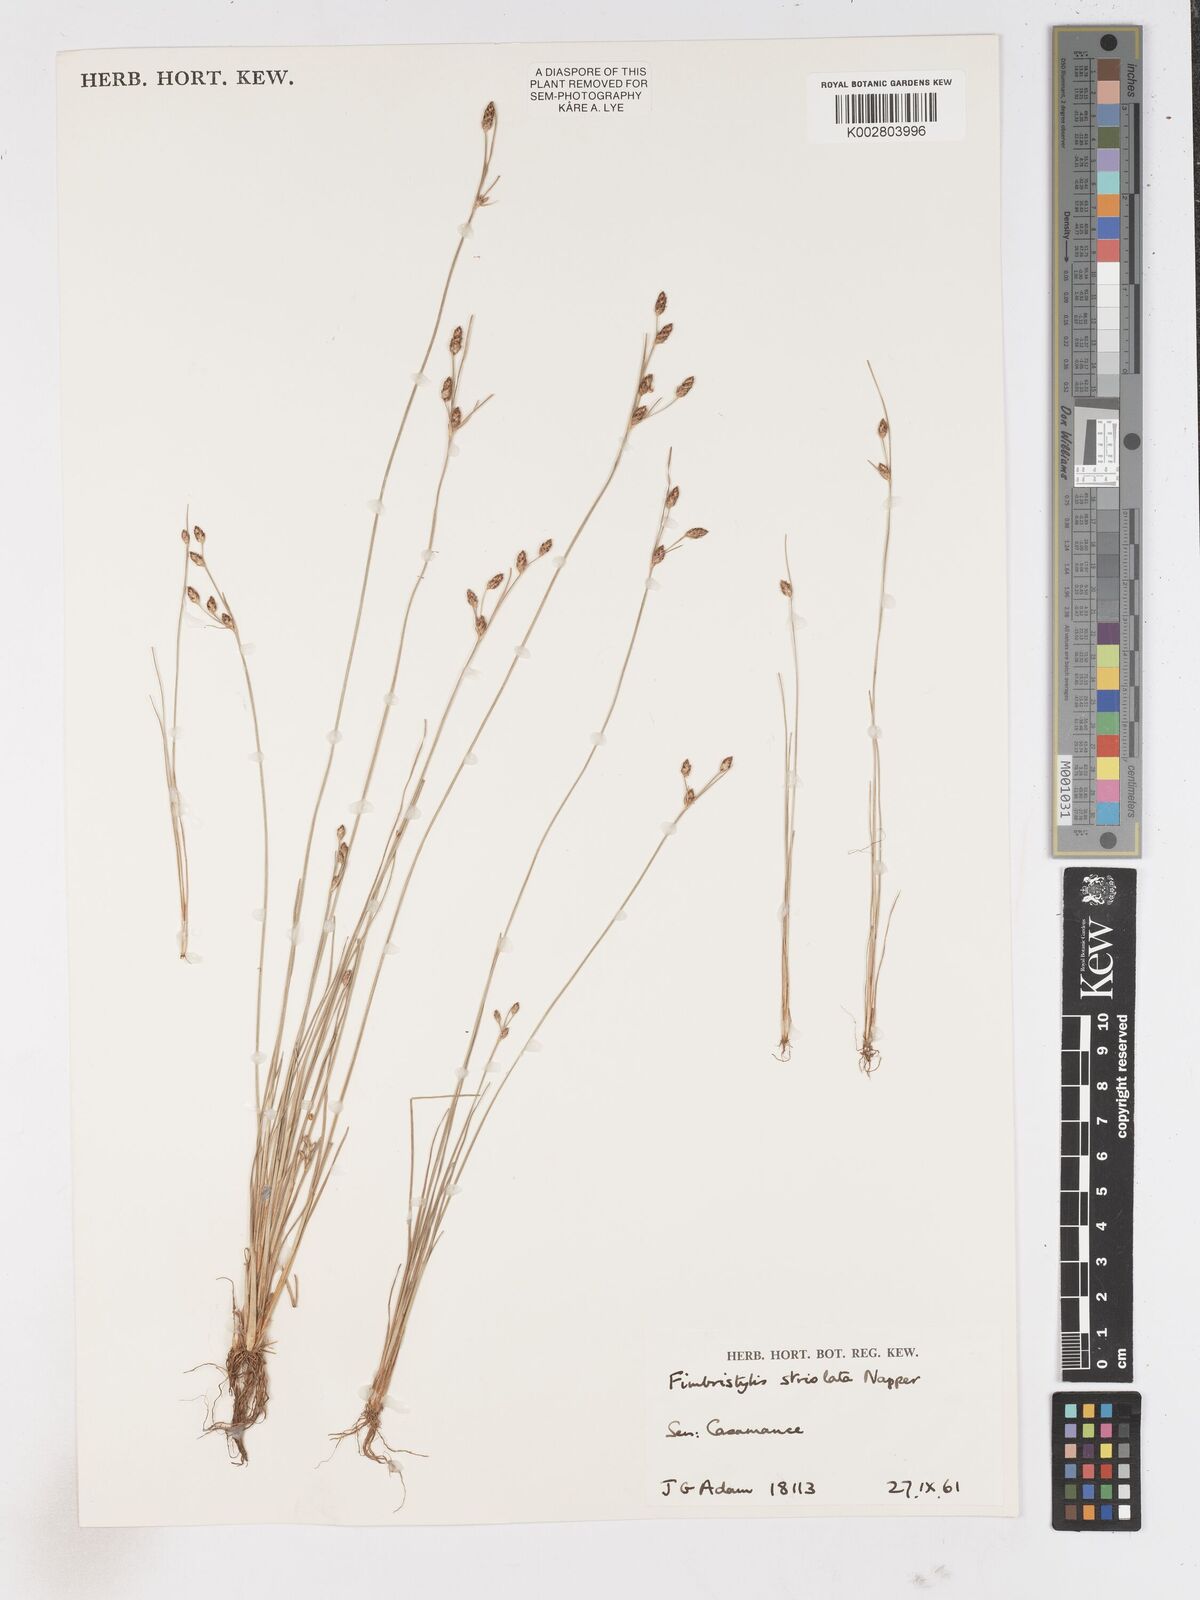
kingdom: Plantae
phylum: Tracheophyta
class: Liliopsida
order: Poales
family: Cyperaceae
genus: Fimbristylis
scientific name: Fimbristylis striolata
